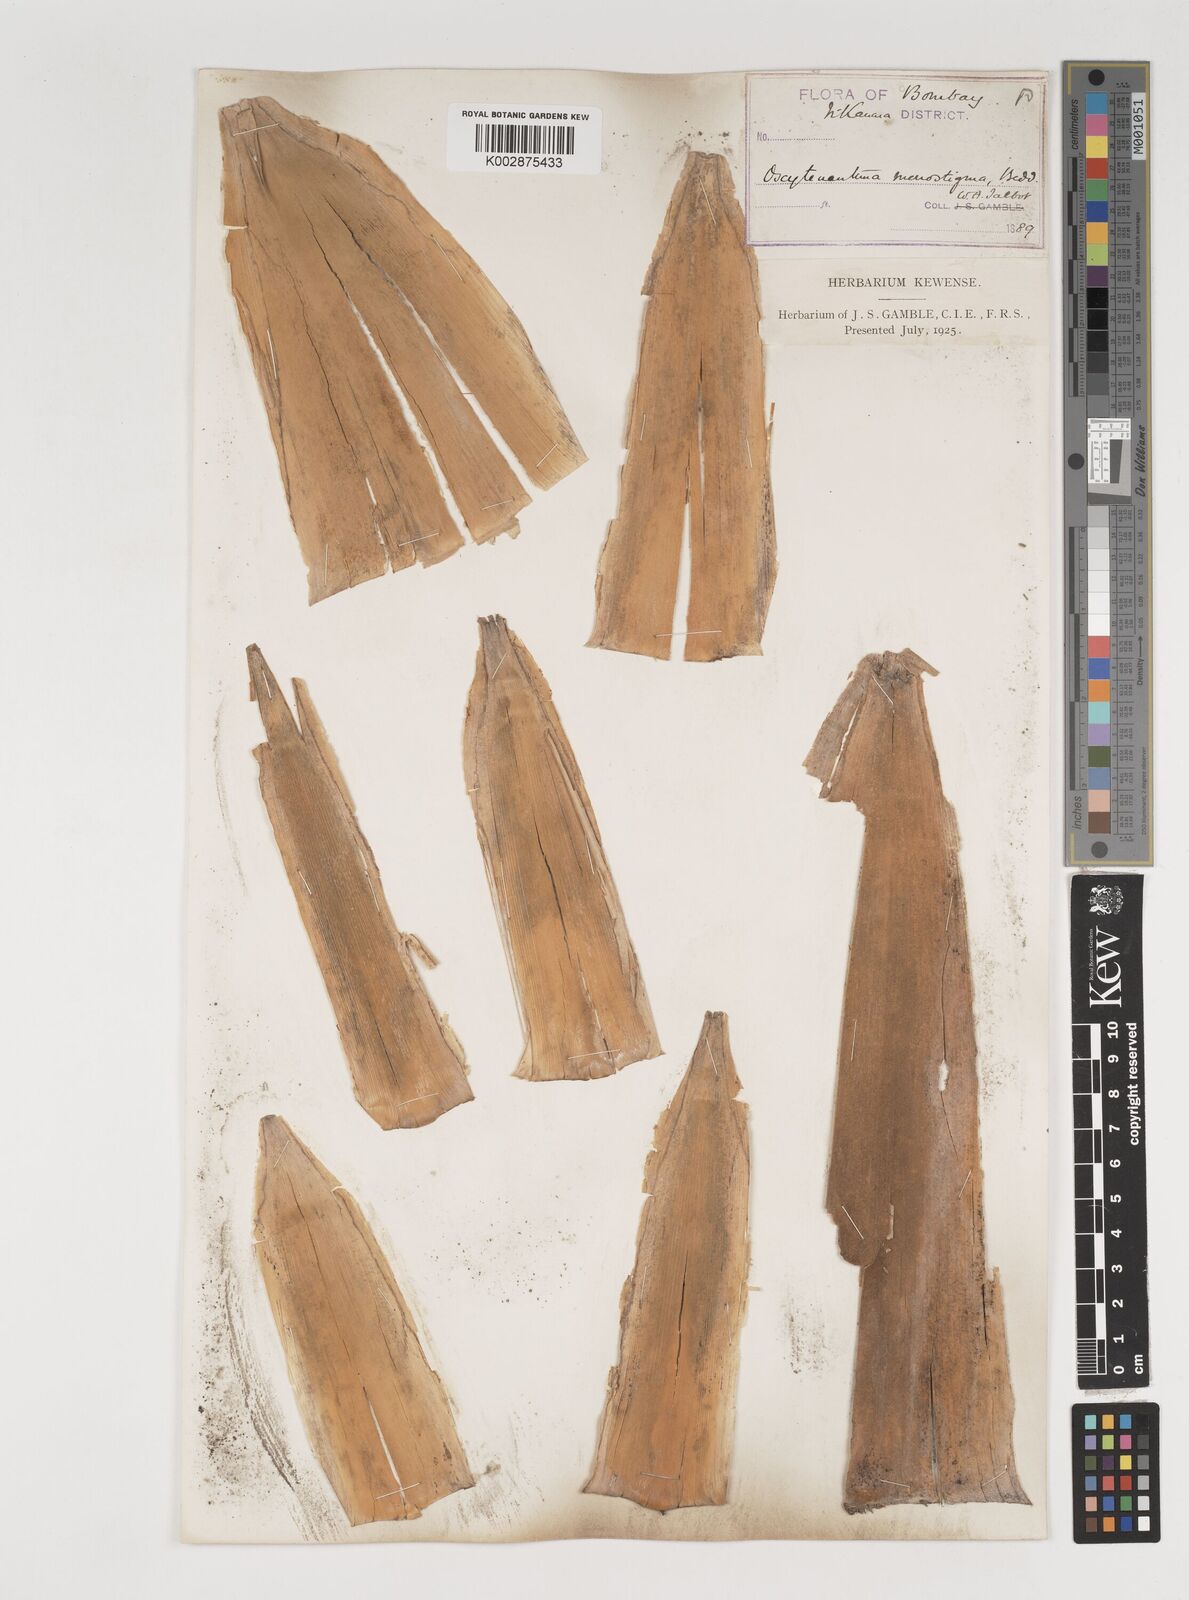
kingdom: Plantae
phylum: Tracheophyta
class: Liliopsida
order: Poales
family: Poaceae
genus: Dendrocalamus
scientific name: Dendrocalamus
